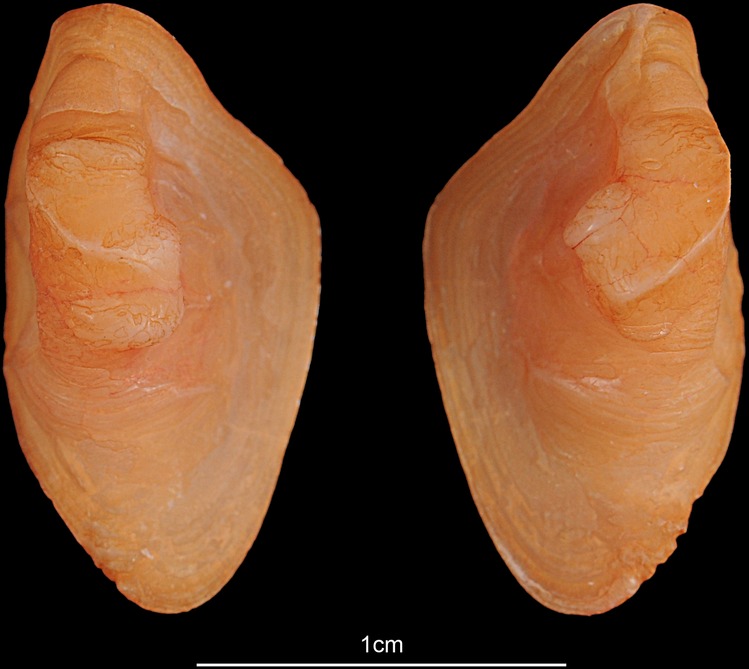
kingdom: Animalia
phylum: Chordata
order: Perciformes
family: Sciaenidae
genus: Otolithes
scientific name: Otolithes ruber
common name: Croaker
